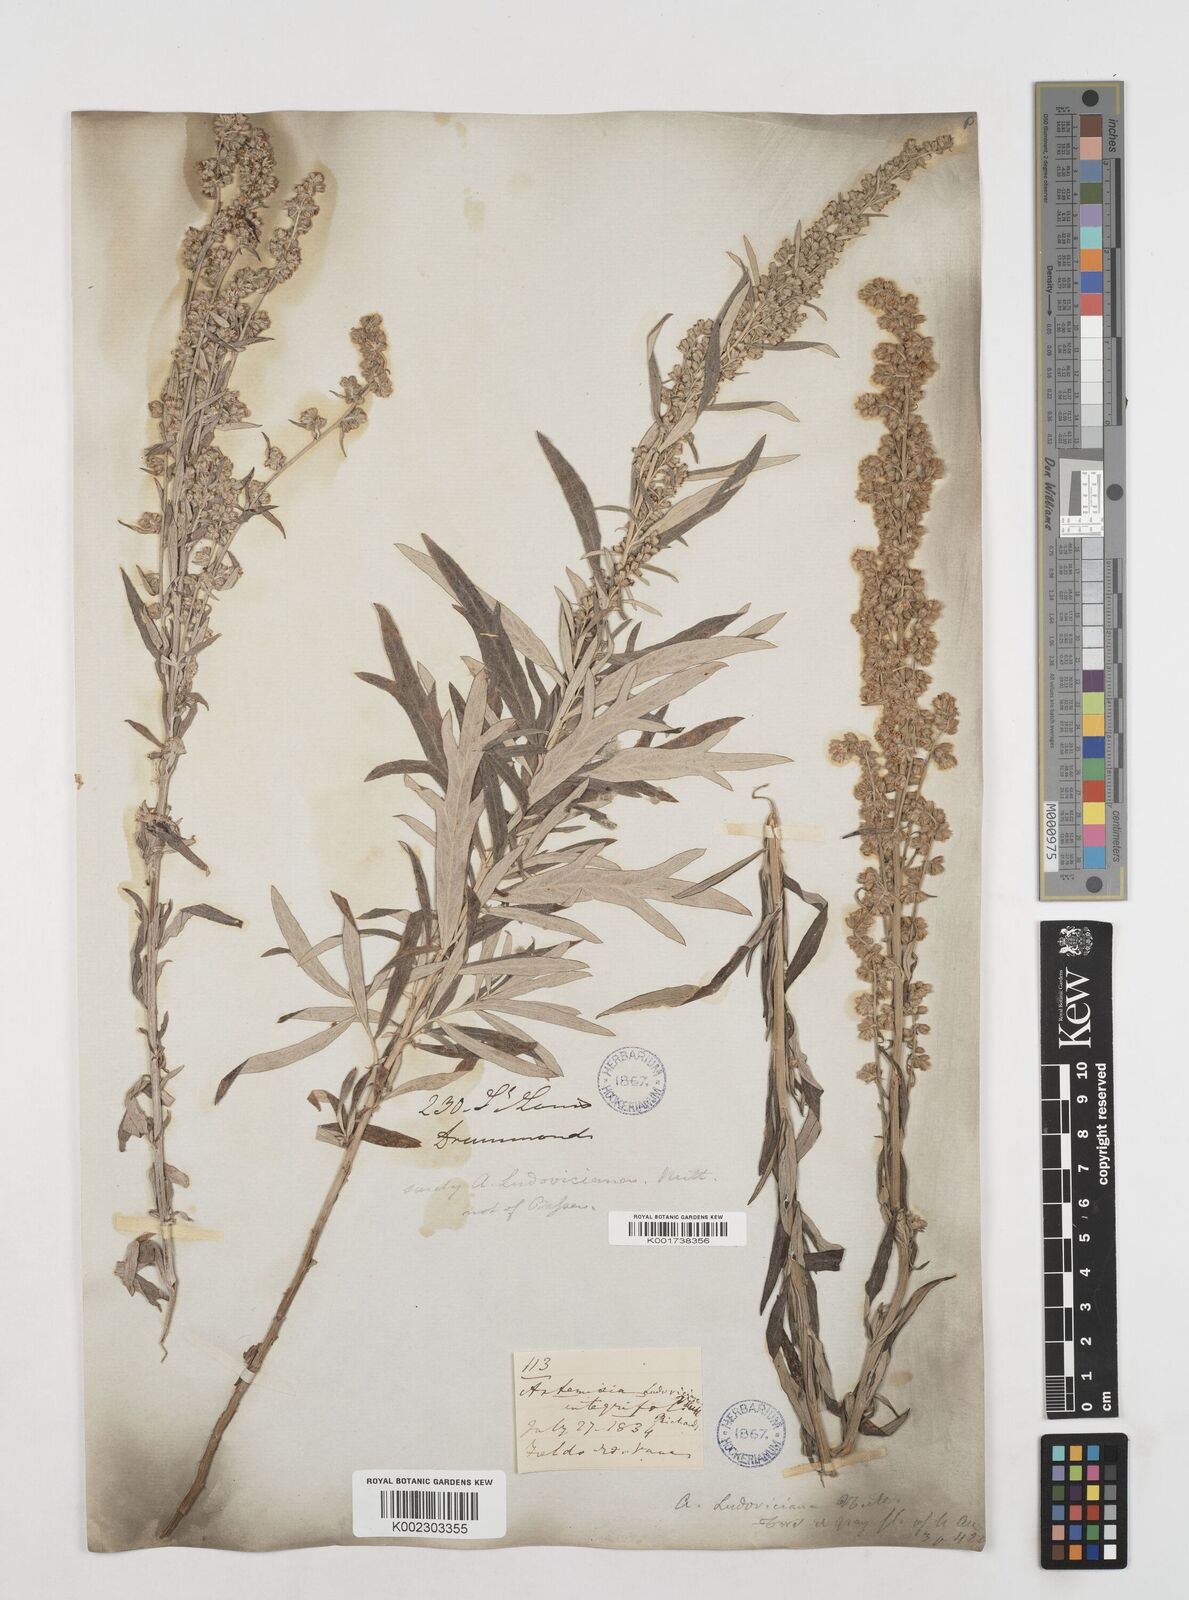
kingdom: Plantae
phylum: Tracheophyta
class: Magnoliopsida
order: Asterales
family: Asteraceae
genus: Artemisia
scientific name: Artemisia
